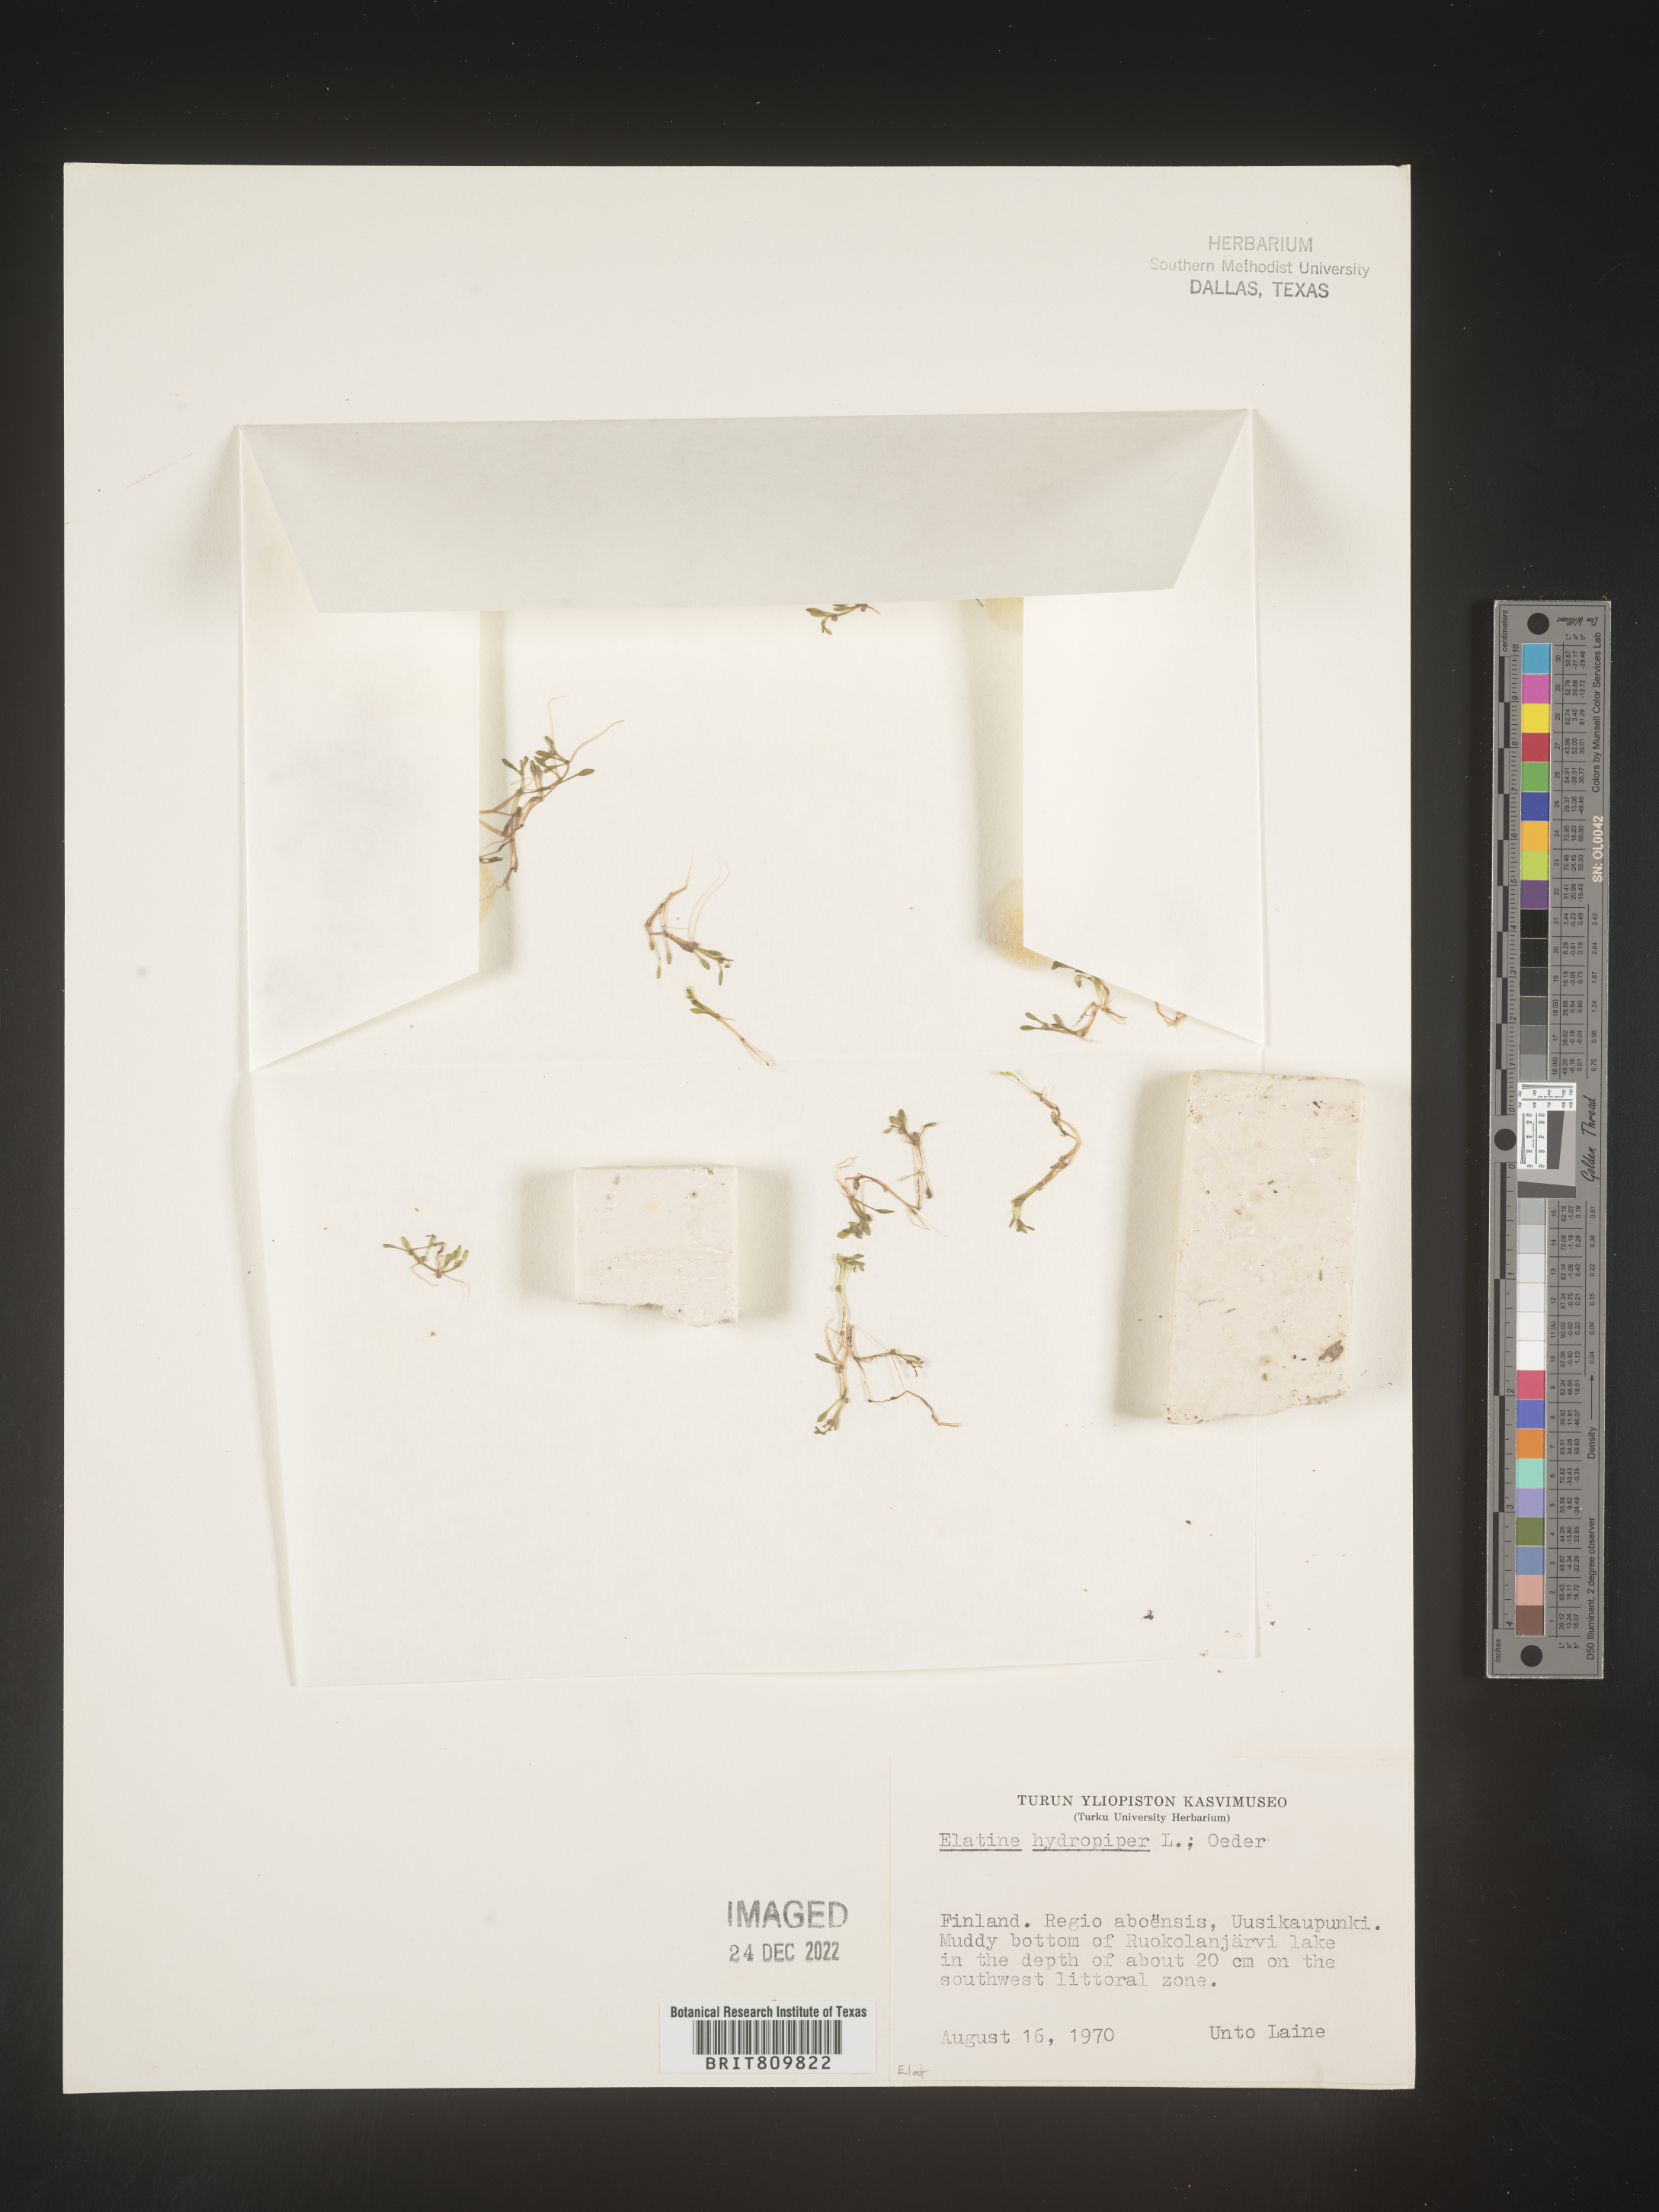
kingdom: Plantae
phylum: Tracheophyta
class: Magnoliopsida
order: Malpighiales
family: Elatinaceae
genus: Elatine
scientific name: Elatine
